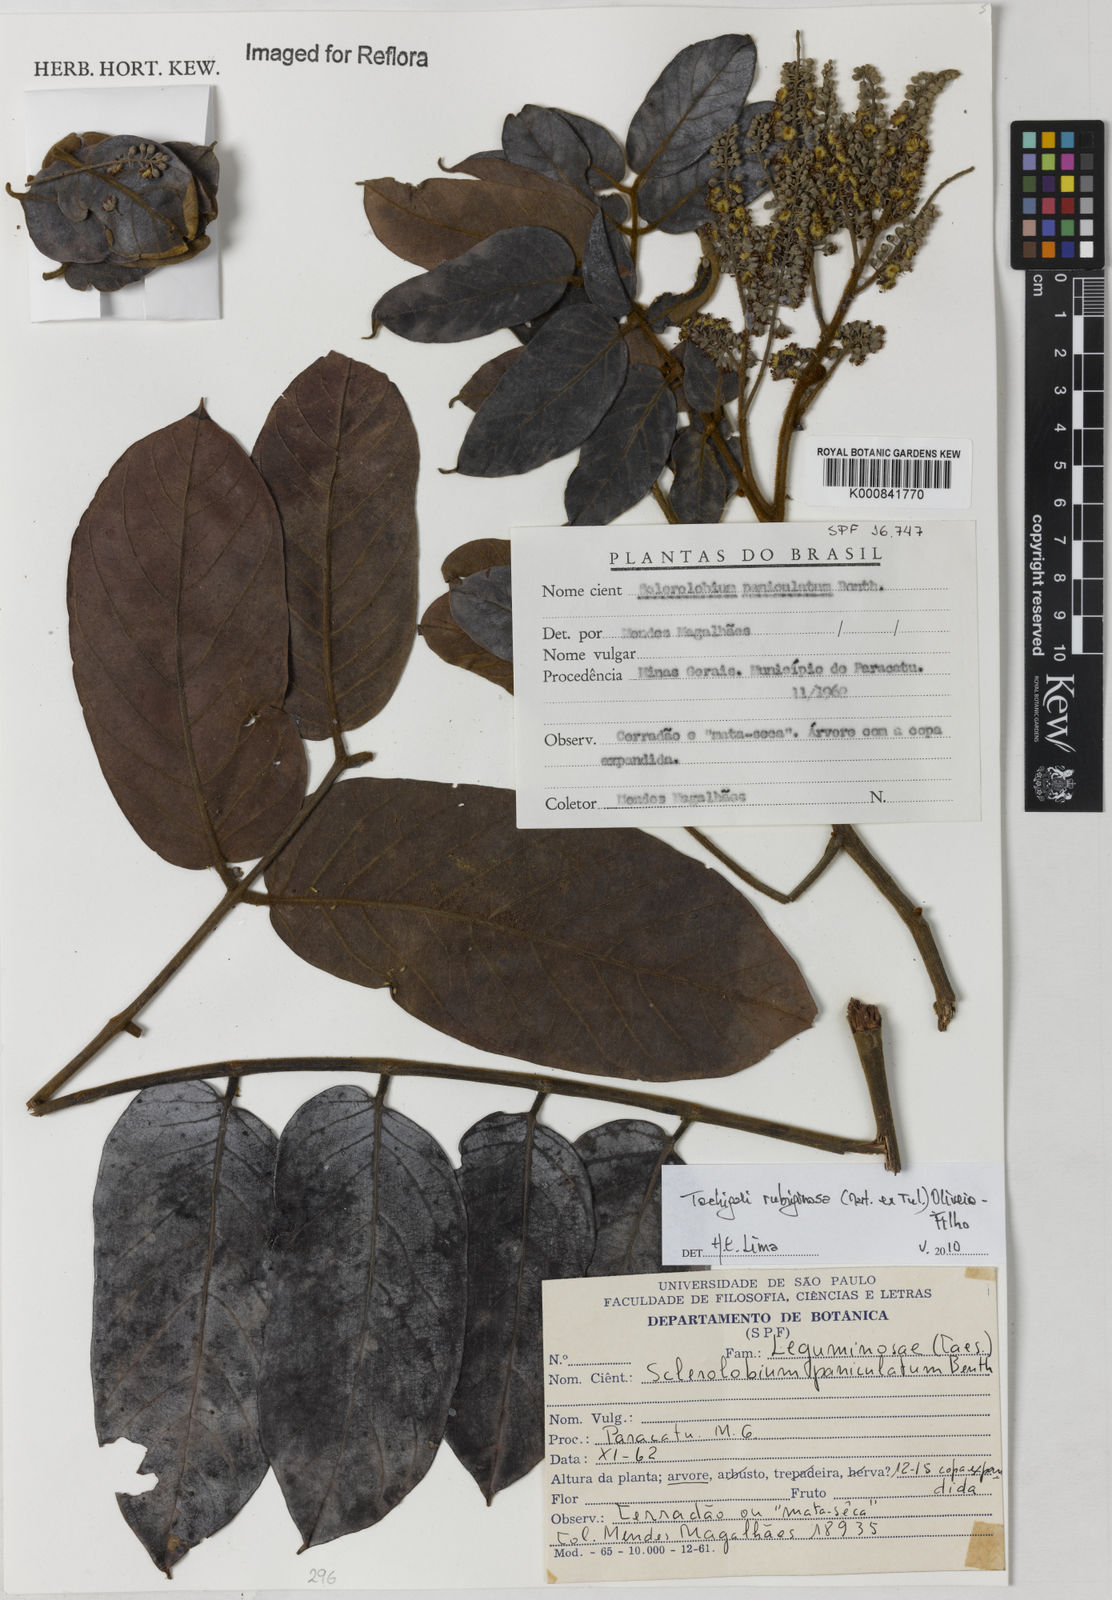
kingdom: Plantae
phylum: Tracheophyta
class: Magnoliopsida
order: Fabales
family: Fabaceae
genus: Tachigali
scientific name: Tachigali rubiginosa
